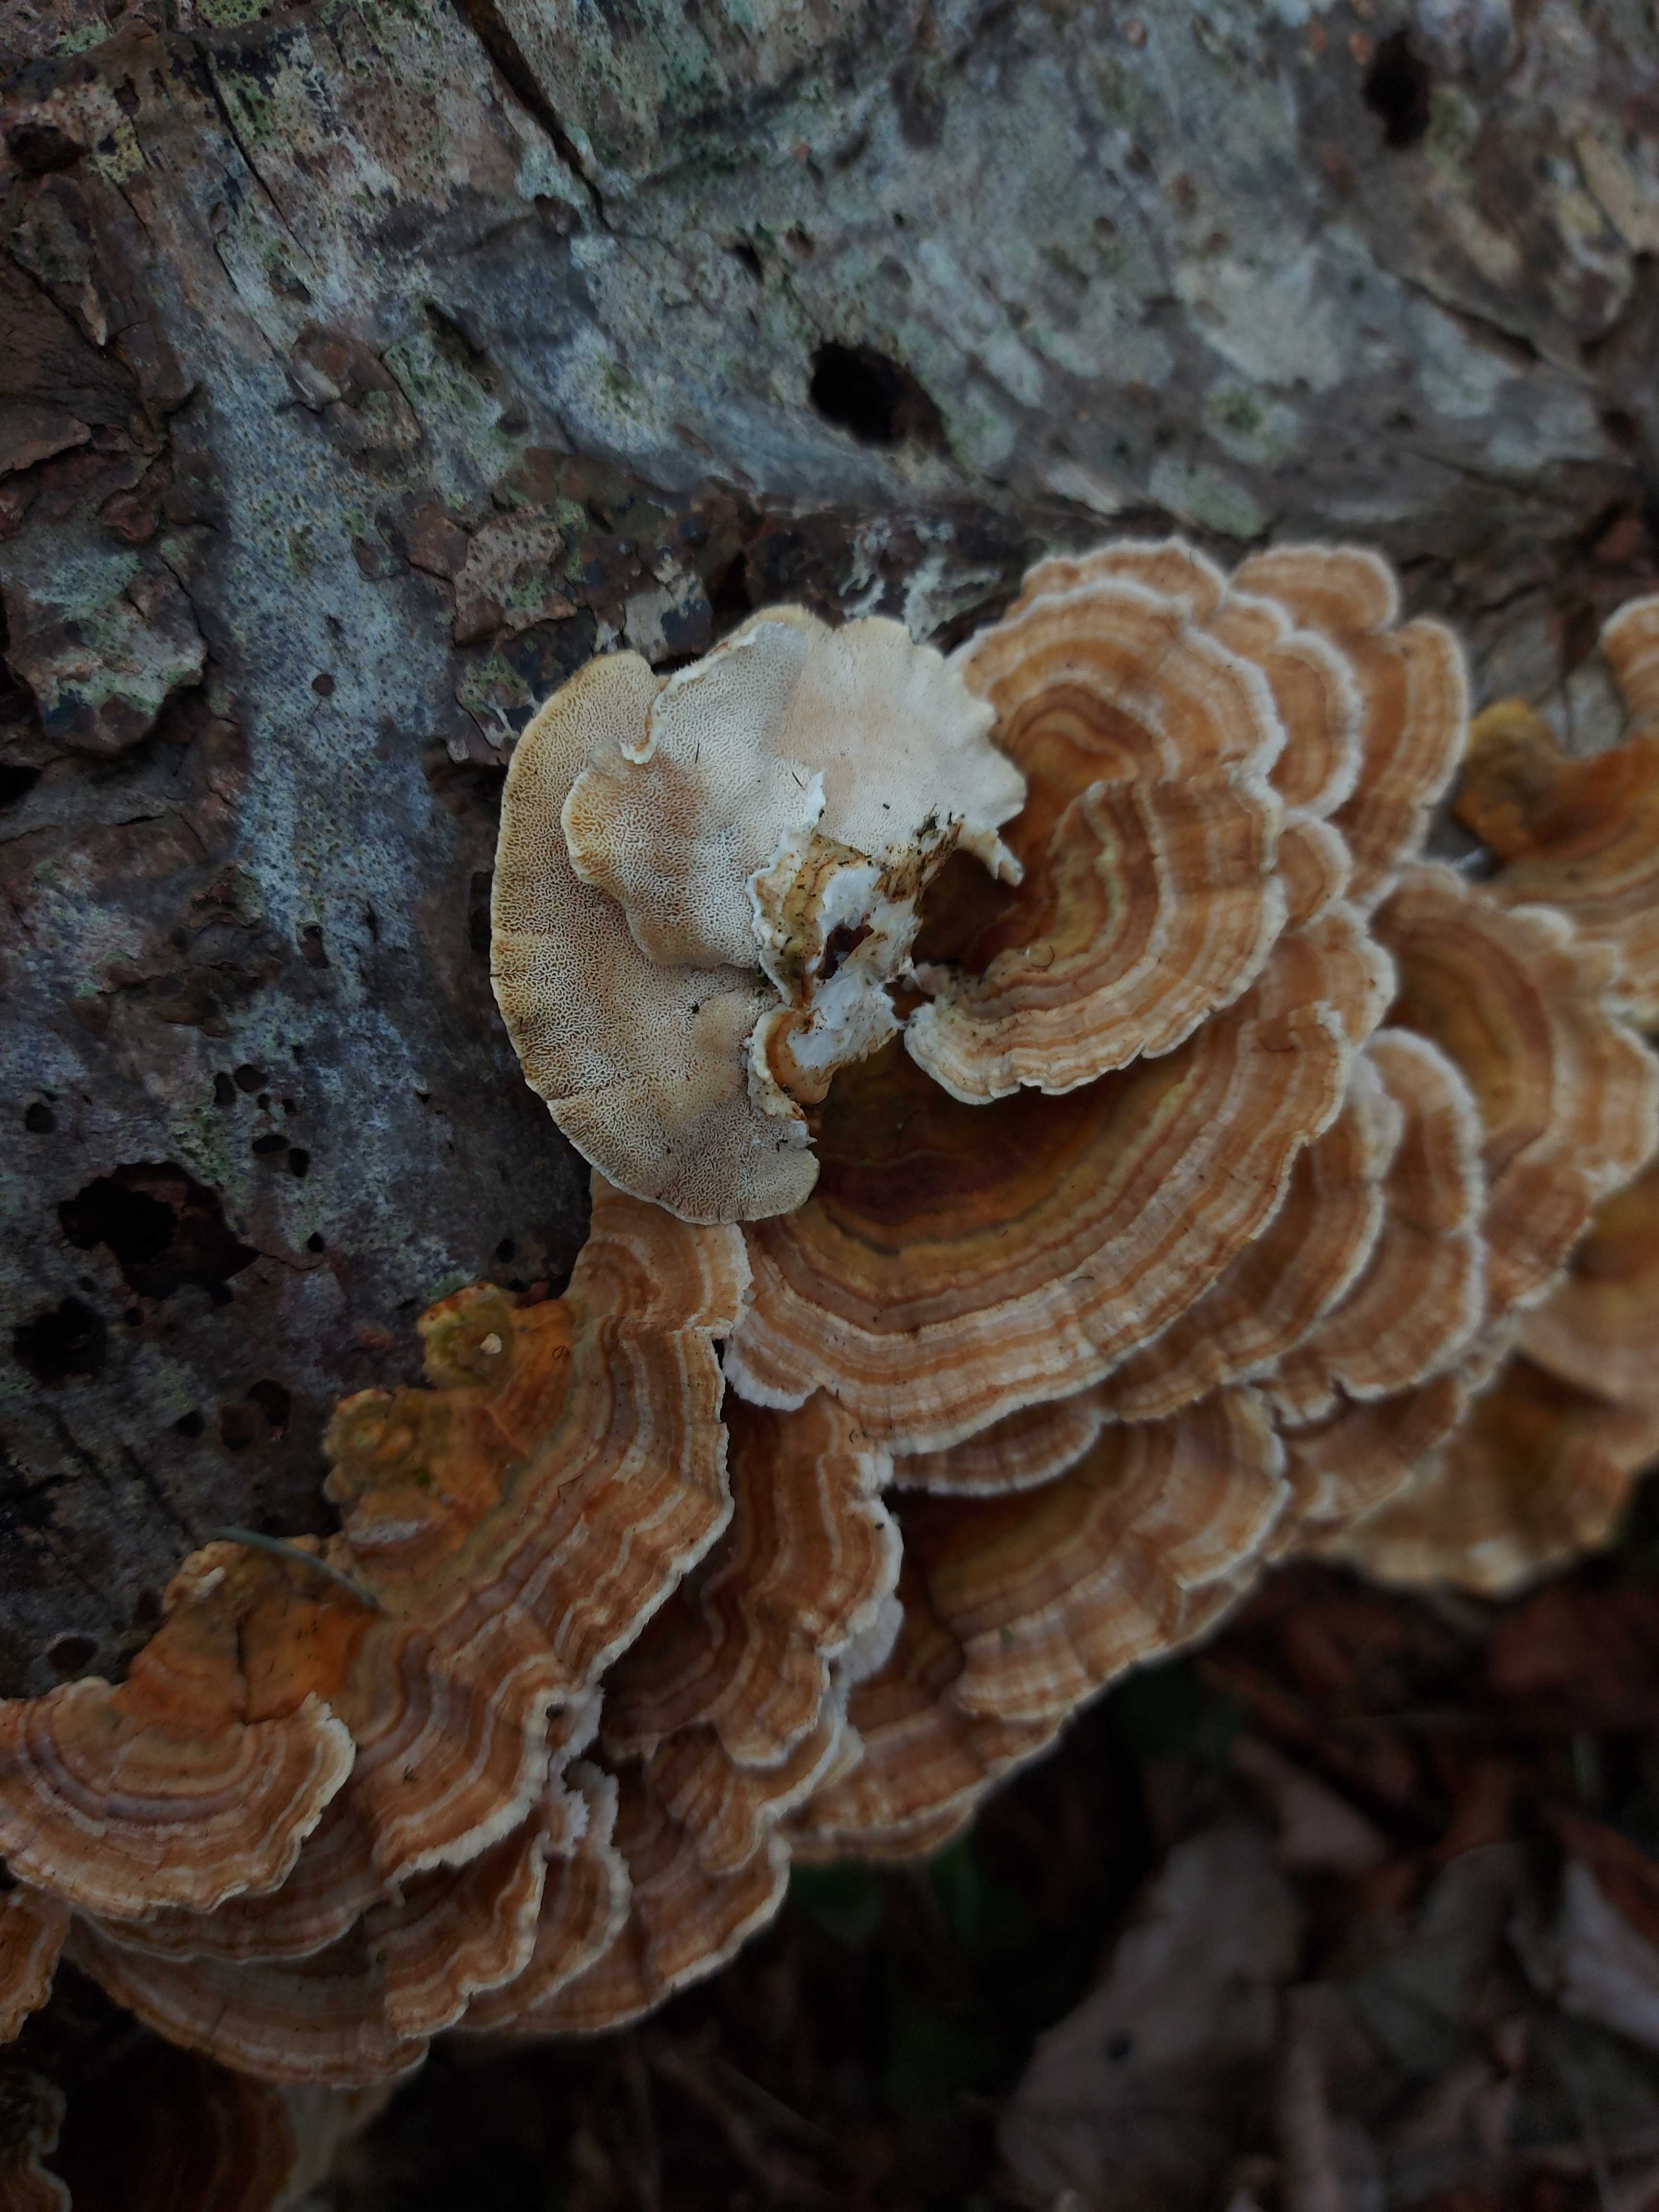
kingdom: Fungi
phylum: Basidiomycota
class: Agaricomycetes
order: Polyporales
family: Polyporaceae
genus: Trametes
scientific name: Trametes ochracea
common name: bæltet læderporesvamp
